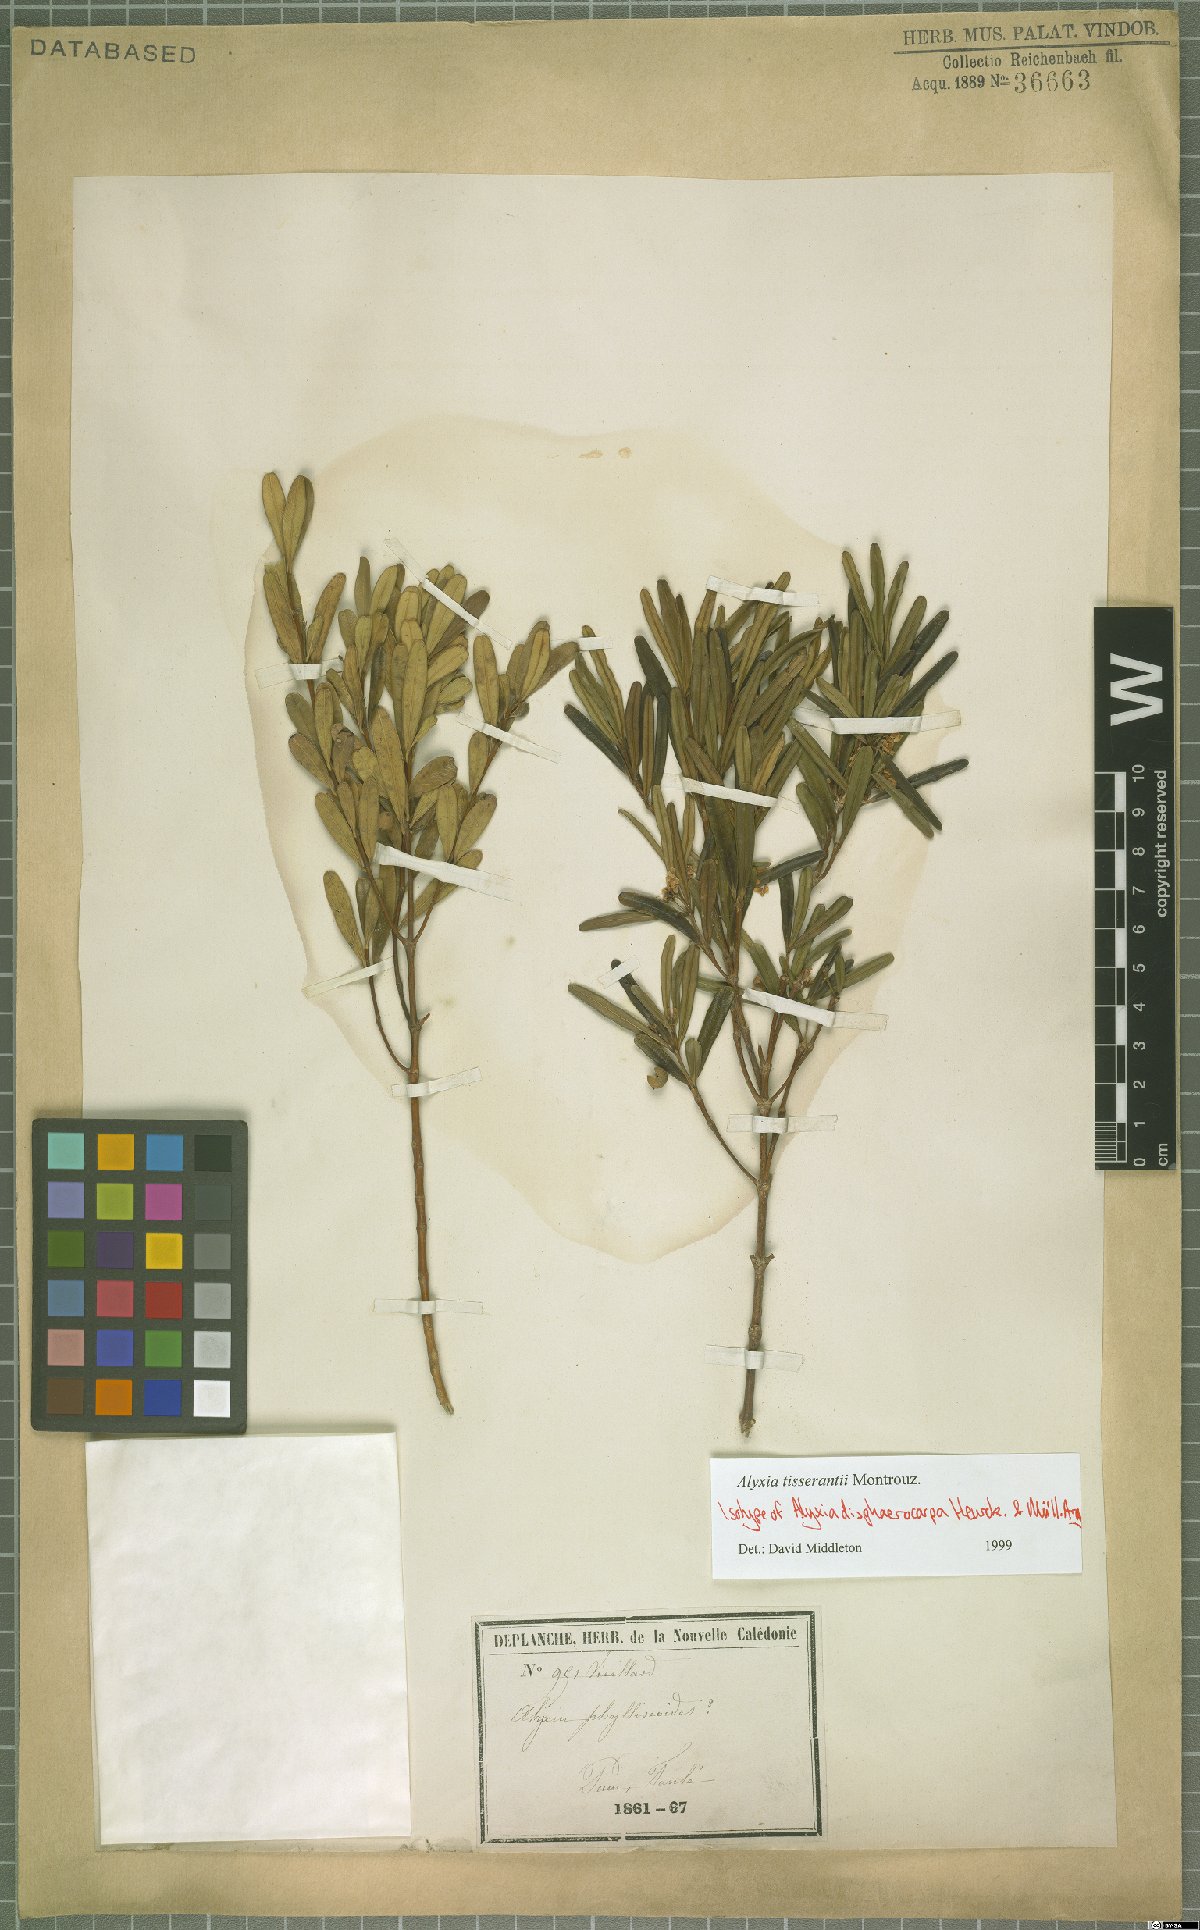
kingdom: Plantae
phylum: Tracheophyta
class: Magnoliopsida
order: Gentianales
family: Apocynaceae
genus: Alyxia
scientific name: Alyxia tisserantii
